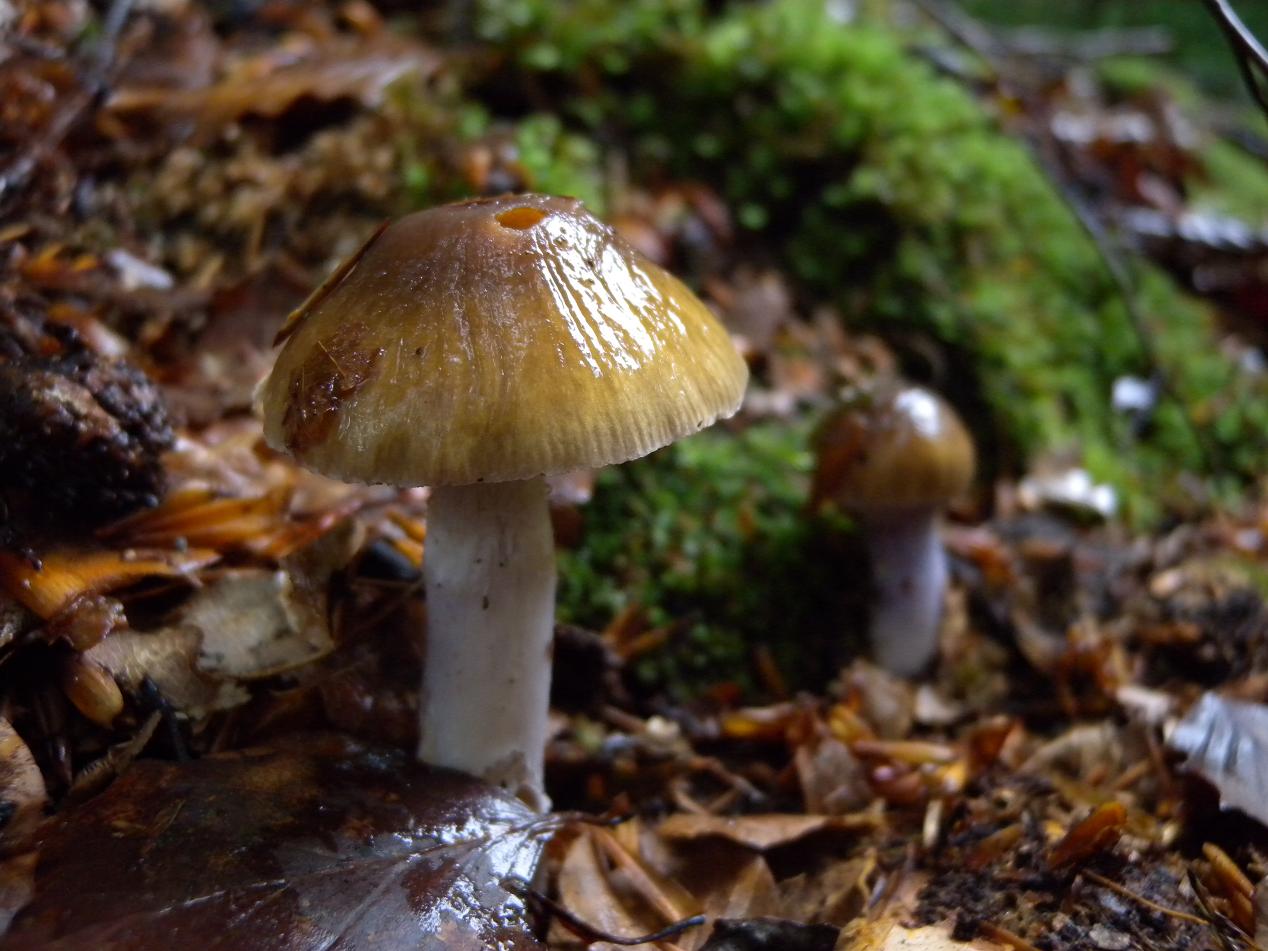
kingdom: Fungi
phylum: Basidiomycota
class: Agaricomycetes
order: Agaricales
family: Cortinariaceae
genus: Cortinarius
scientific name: Cortinarius elatior
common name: høj slørhat
